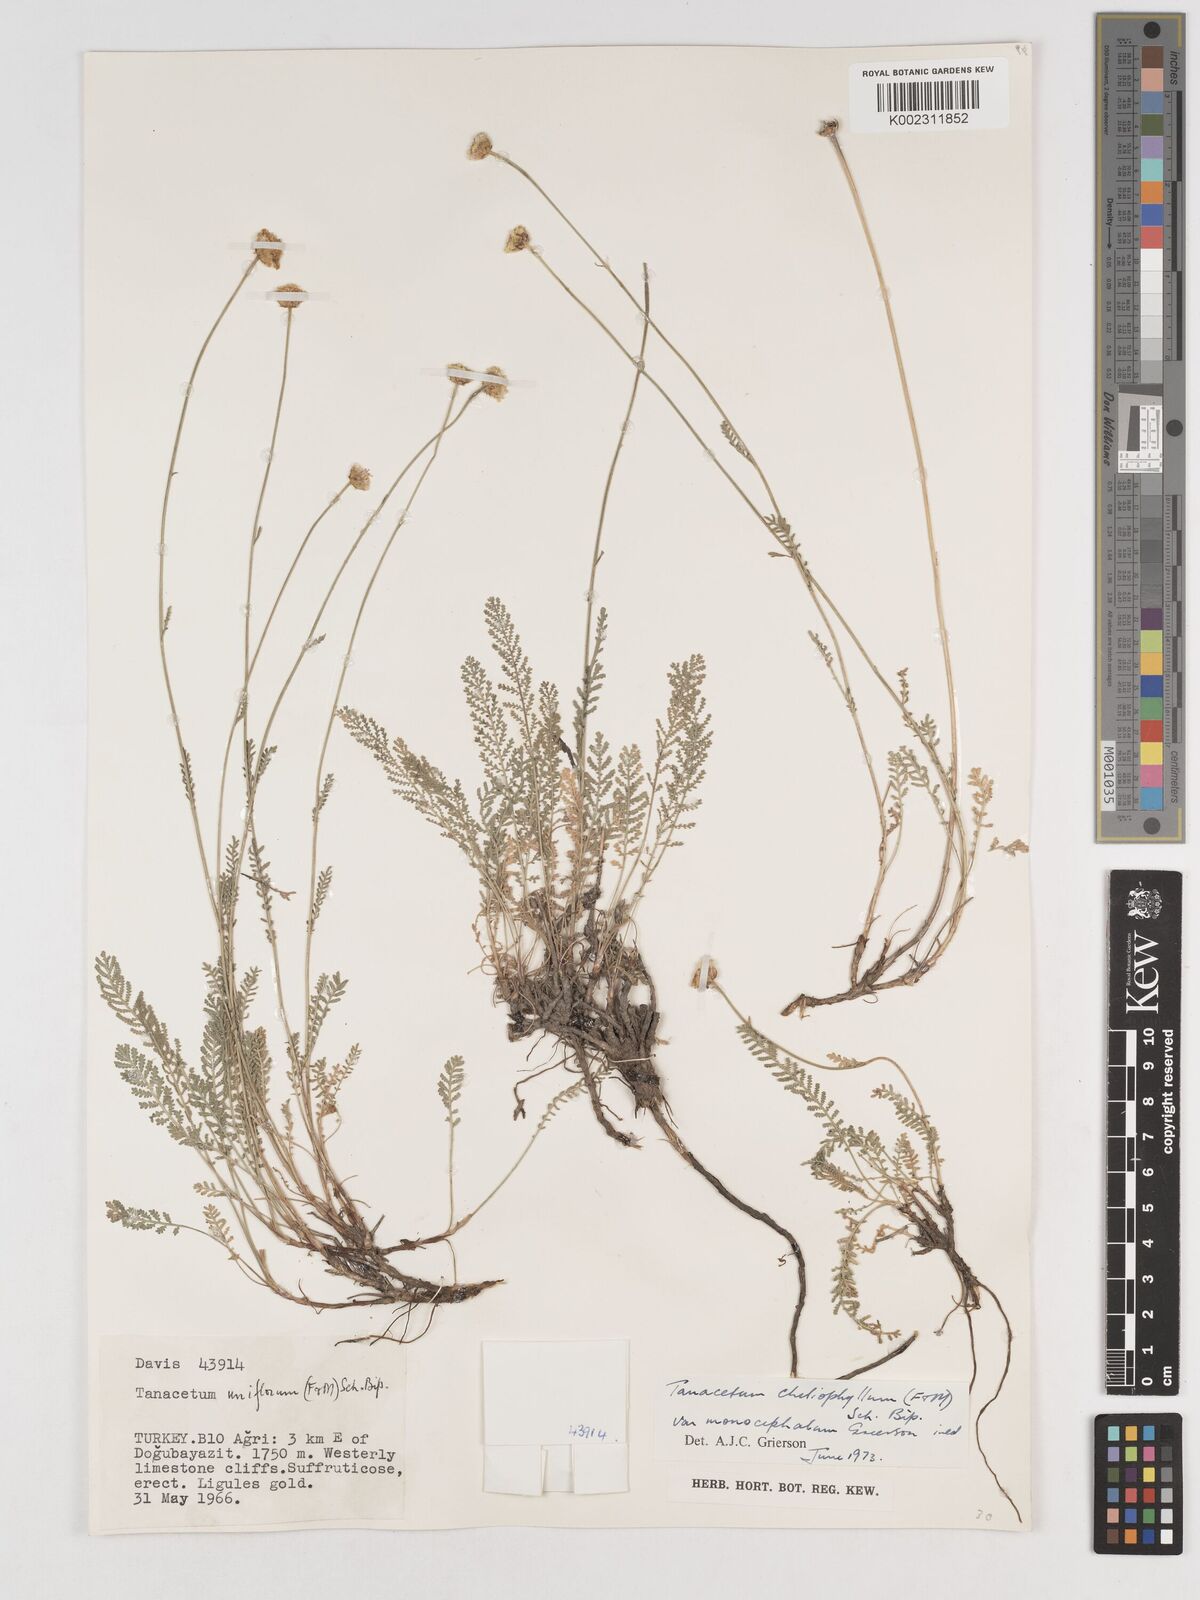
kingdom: Plantae
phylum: Tracheophyta
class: Magnoliopsida
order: Asterales
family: Asteraceae
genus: Tanacetum
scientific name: Tanacetum aureum
